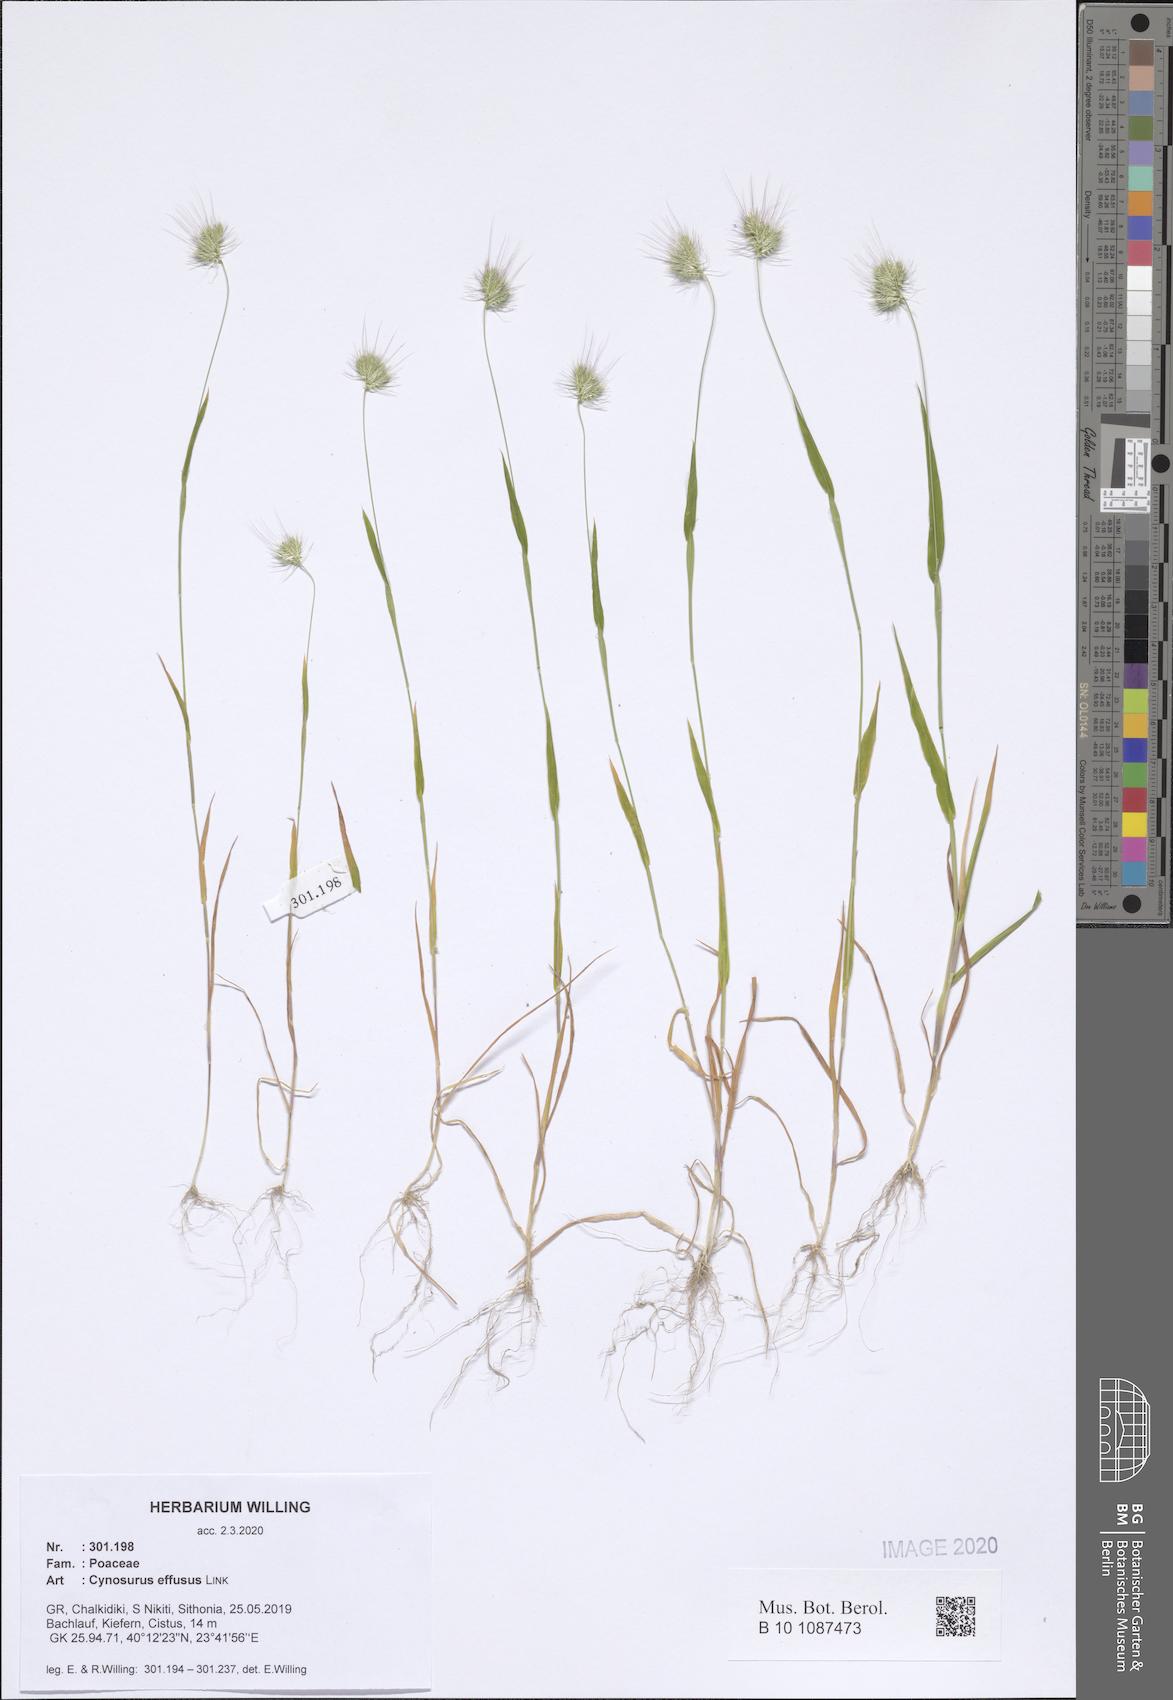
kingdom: Plantae
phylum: Tracheophyta
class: Liliopsida
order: Poales
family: Poaceae
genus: Cynosurus
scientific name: Cynosurus effusus
